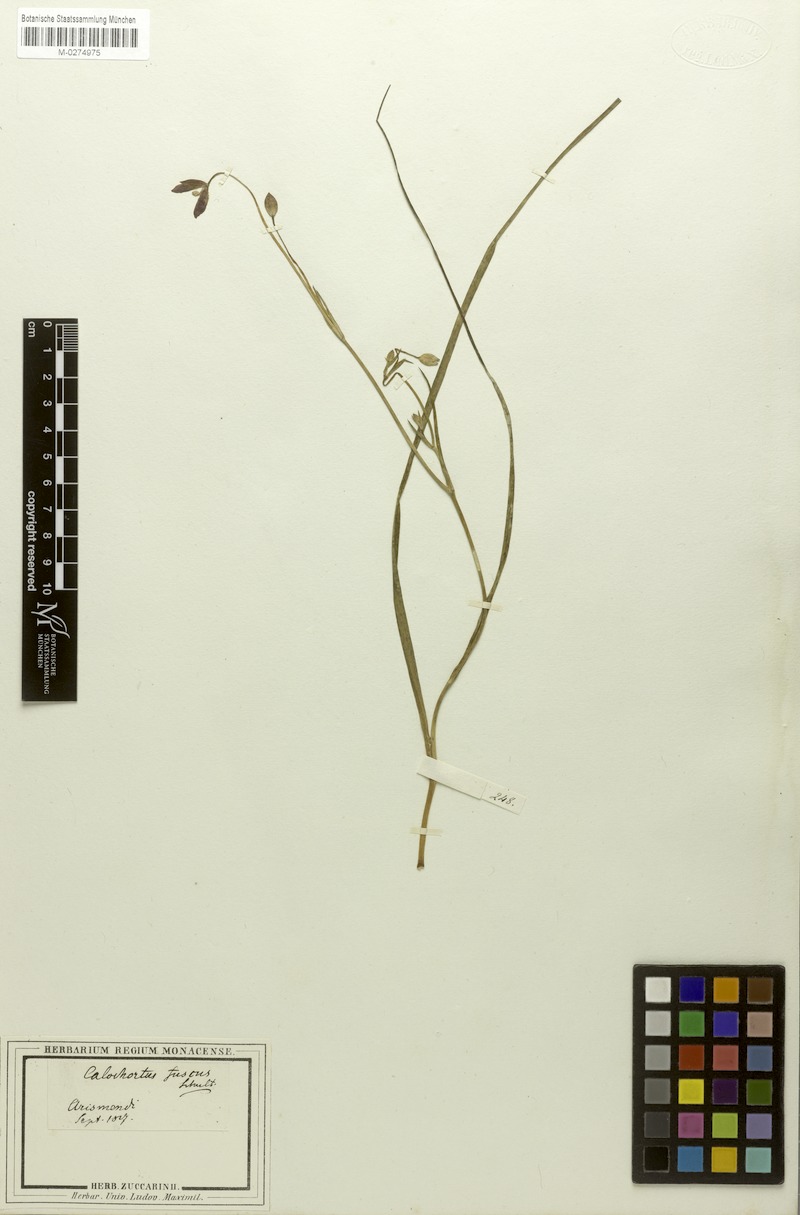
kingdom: Plantae
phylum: Tracheophyta
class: Liliopsida
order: Liliales
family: Liliaceae
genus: Calochortus
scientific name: Calochortus fuscus
